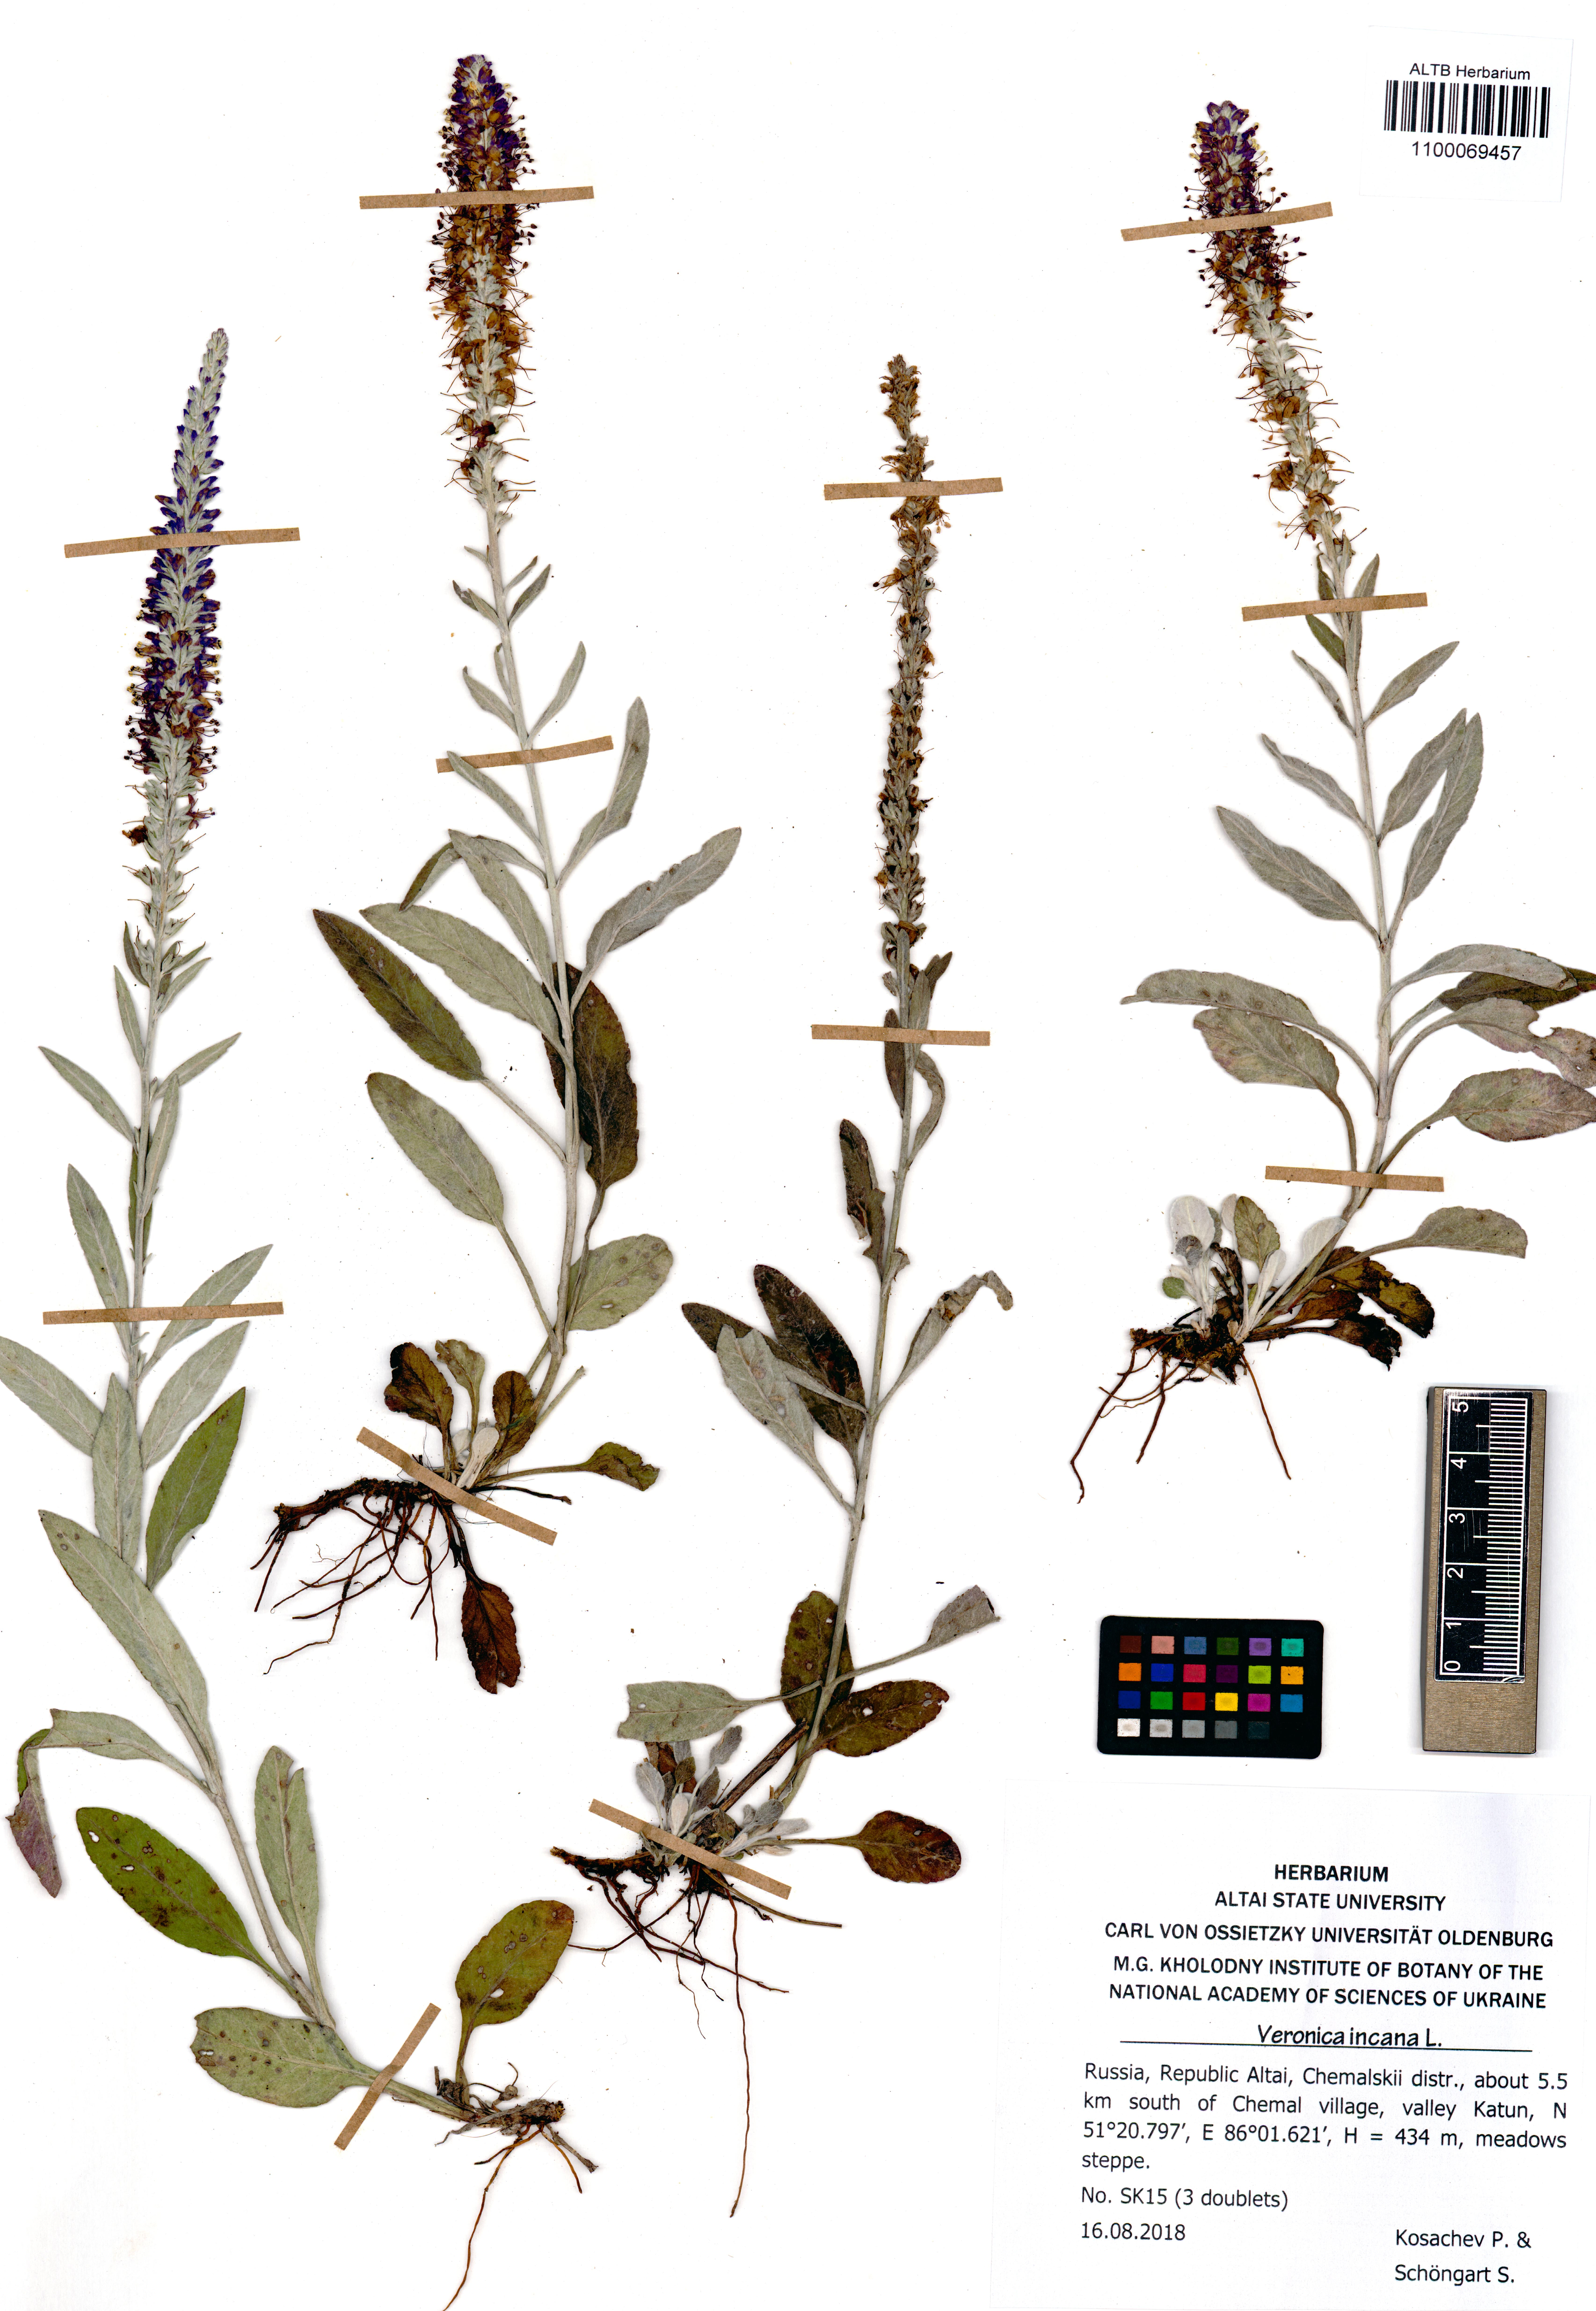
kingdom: Plantae
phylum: Tracheophyta
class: Magnoliopsida
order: Lamiales
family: Plantaginaceae
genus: Veronica
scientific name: Veronica incana
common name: Silver speedwell
